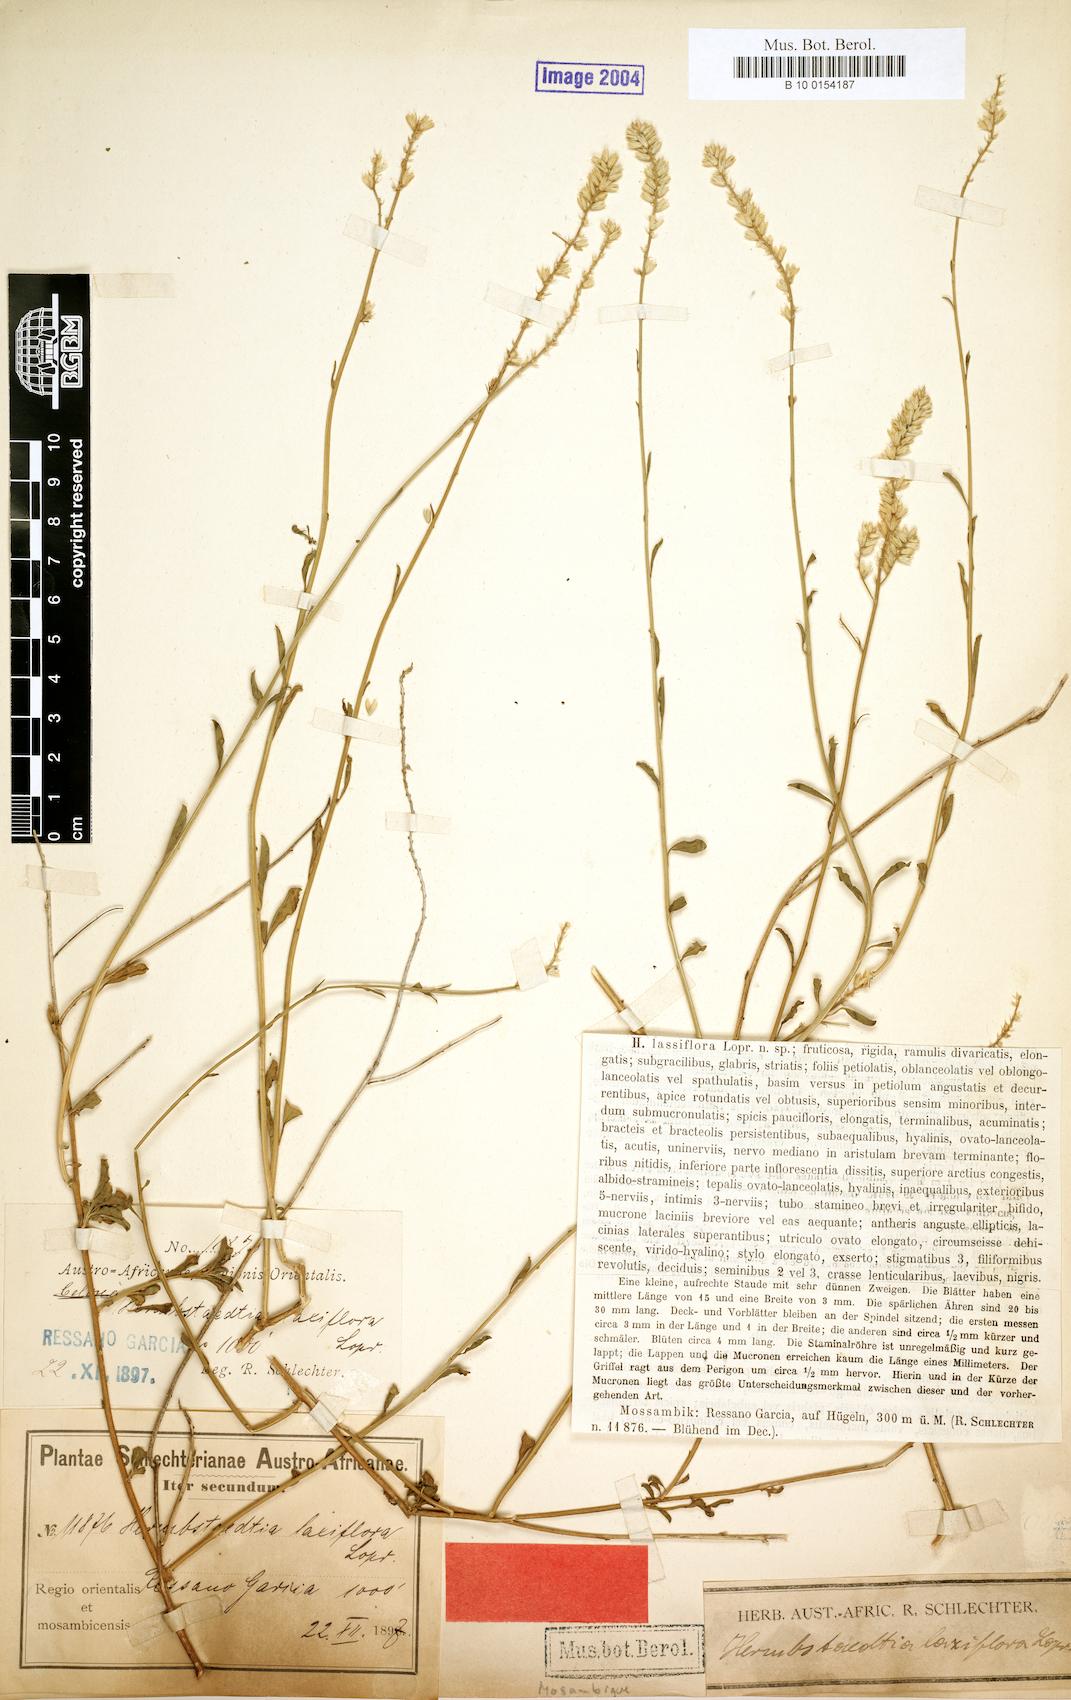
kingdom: Plantae
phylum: Tracheophyta
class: Magnoliopsida
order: Caryophyllales
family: Amaranthaceae
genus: Hermbstaedtia
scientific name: Hermbstaedtia odorata
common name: Guineaflower
